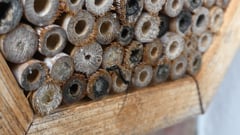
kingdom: Animalia
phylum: Arthropoda
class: Insecta
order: Hymenoptera
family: Ichneumonidae
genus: Dolichomitus
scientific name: Dolichomitus imperator
